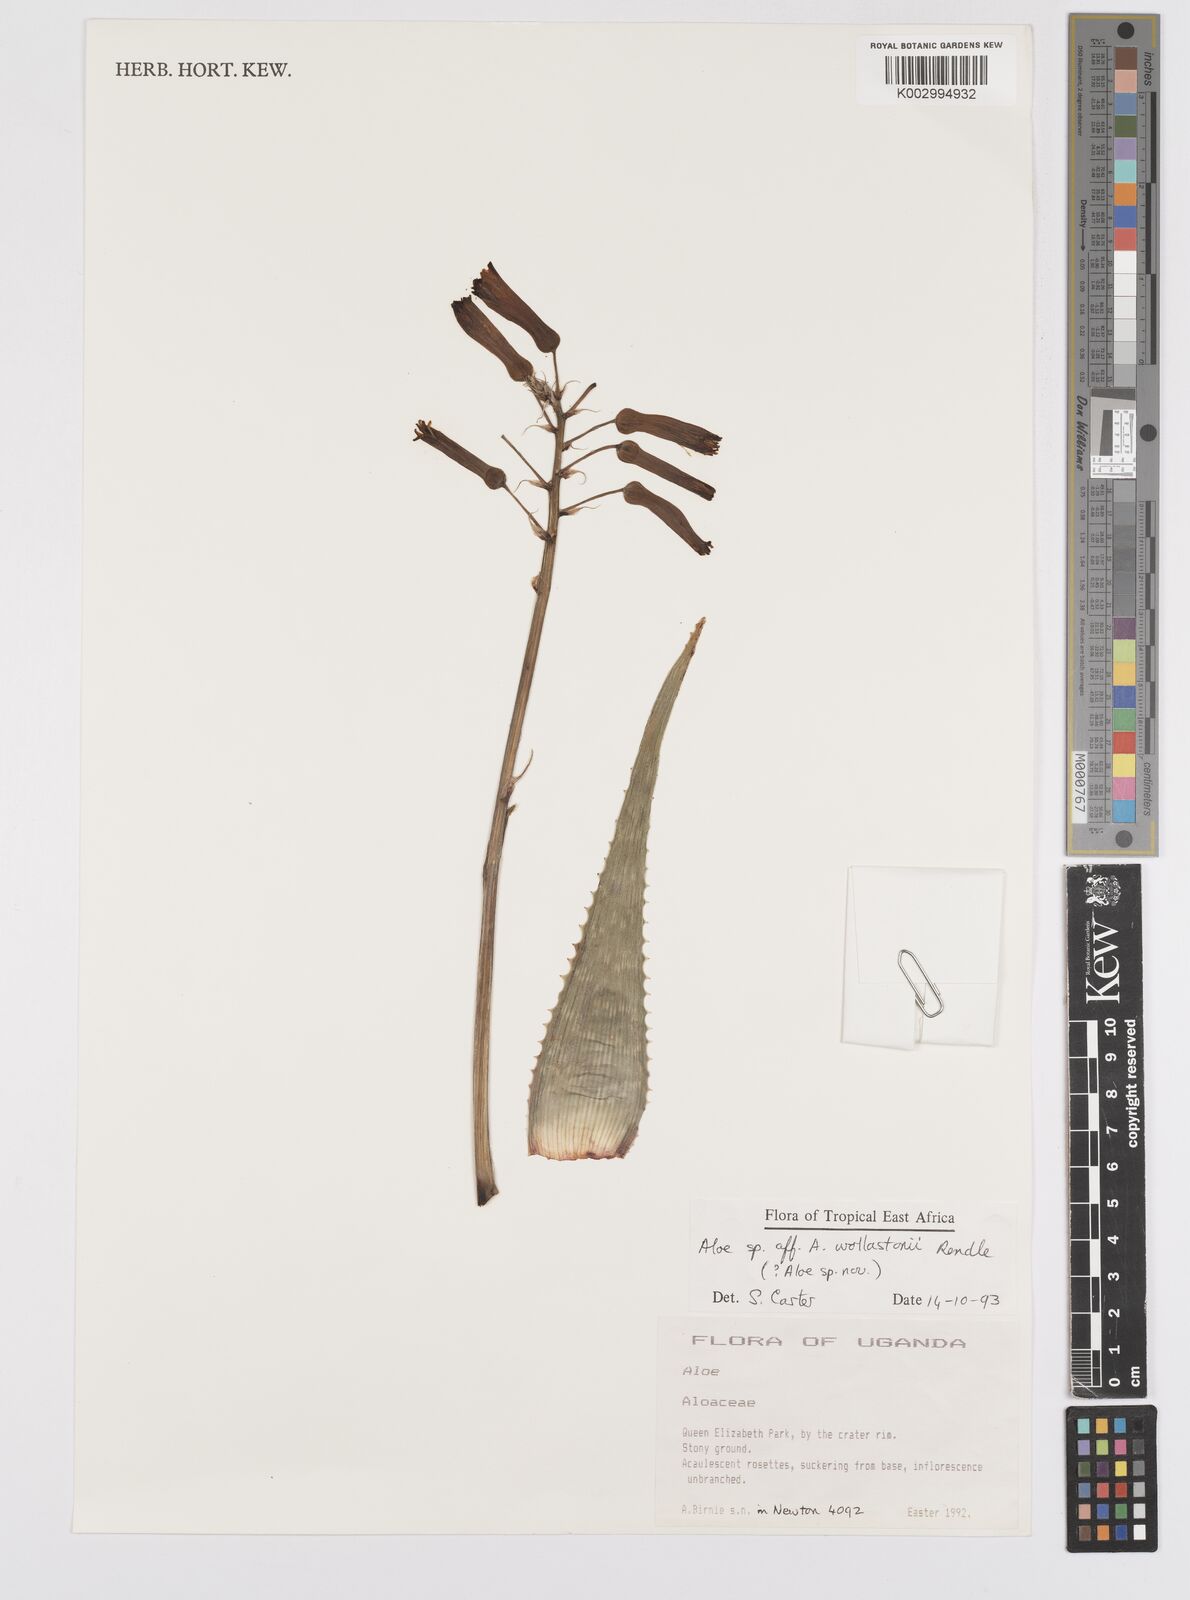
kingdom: Plantae
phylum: Tracheophyta
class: Liliopsida
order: Asparagales
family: Asphodelaceae
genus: Aloe
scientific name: Aloe wollastonii
